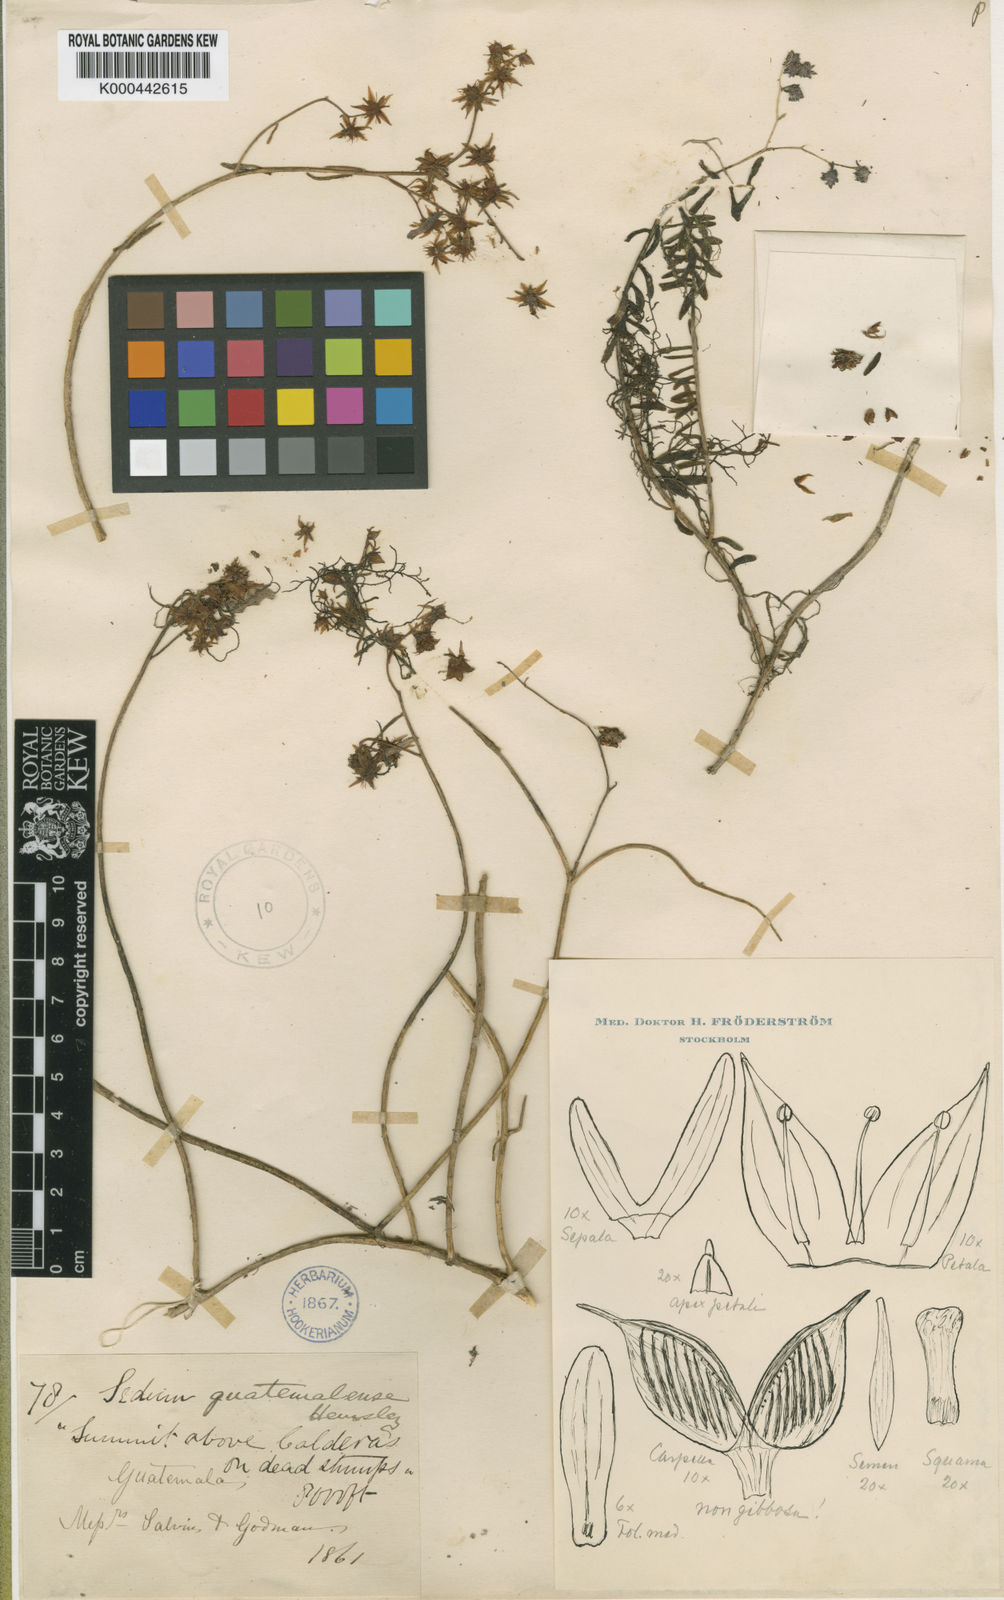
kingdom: Plantae
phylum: Tracheophyta
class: Magnoliopsida
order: Saxifragales
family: Crassulaceae
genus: Sedum
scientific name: Sedum guatemalense
